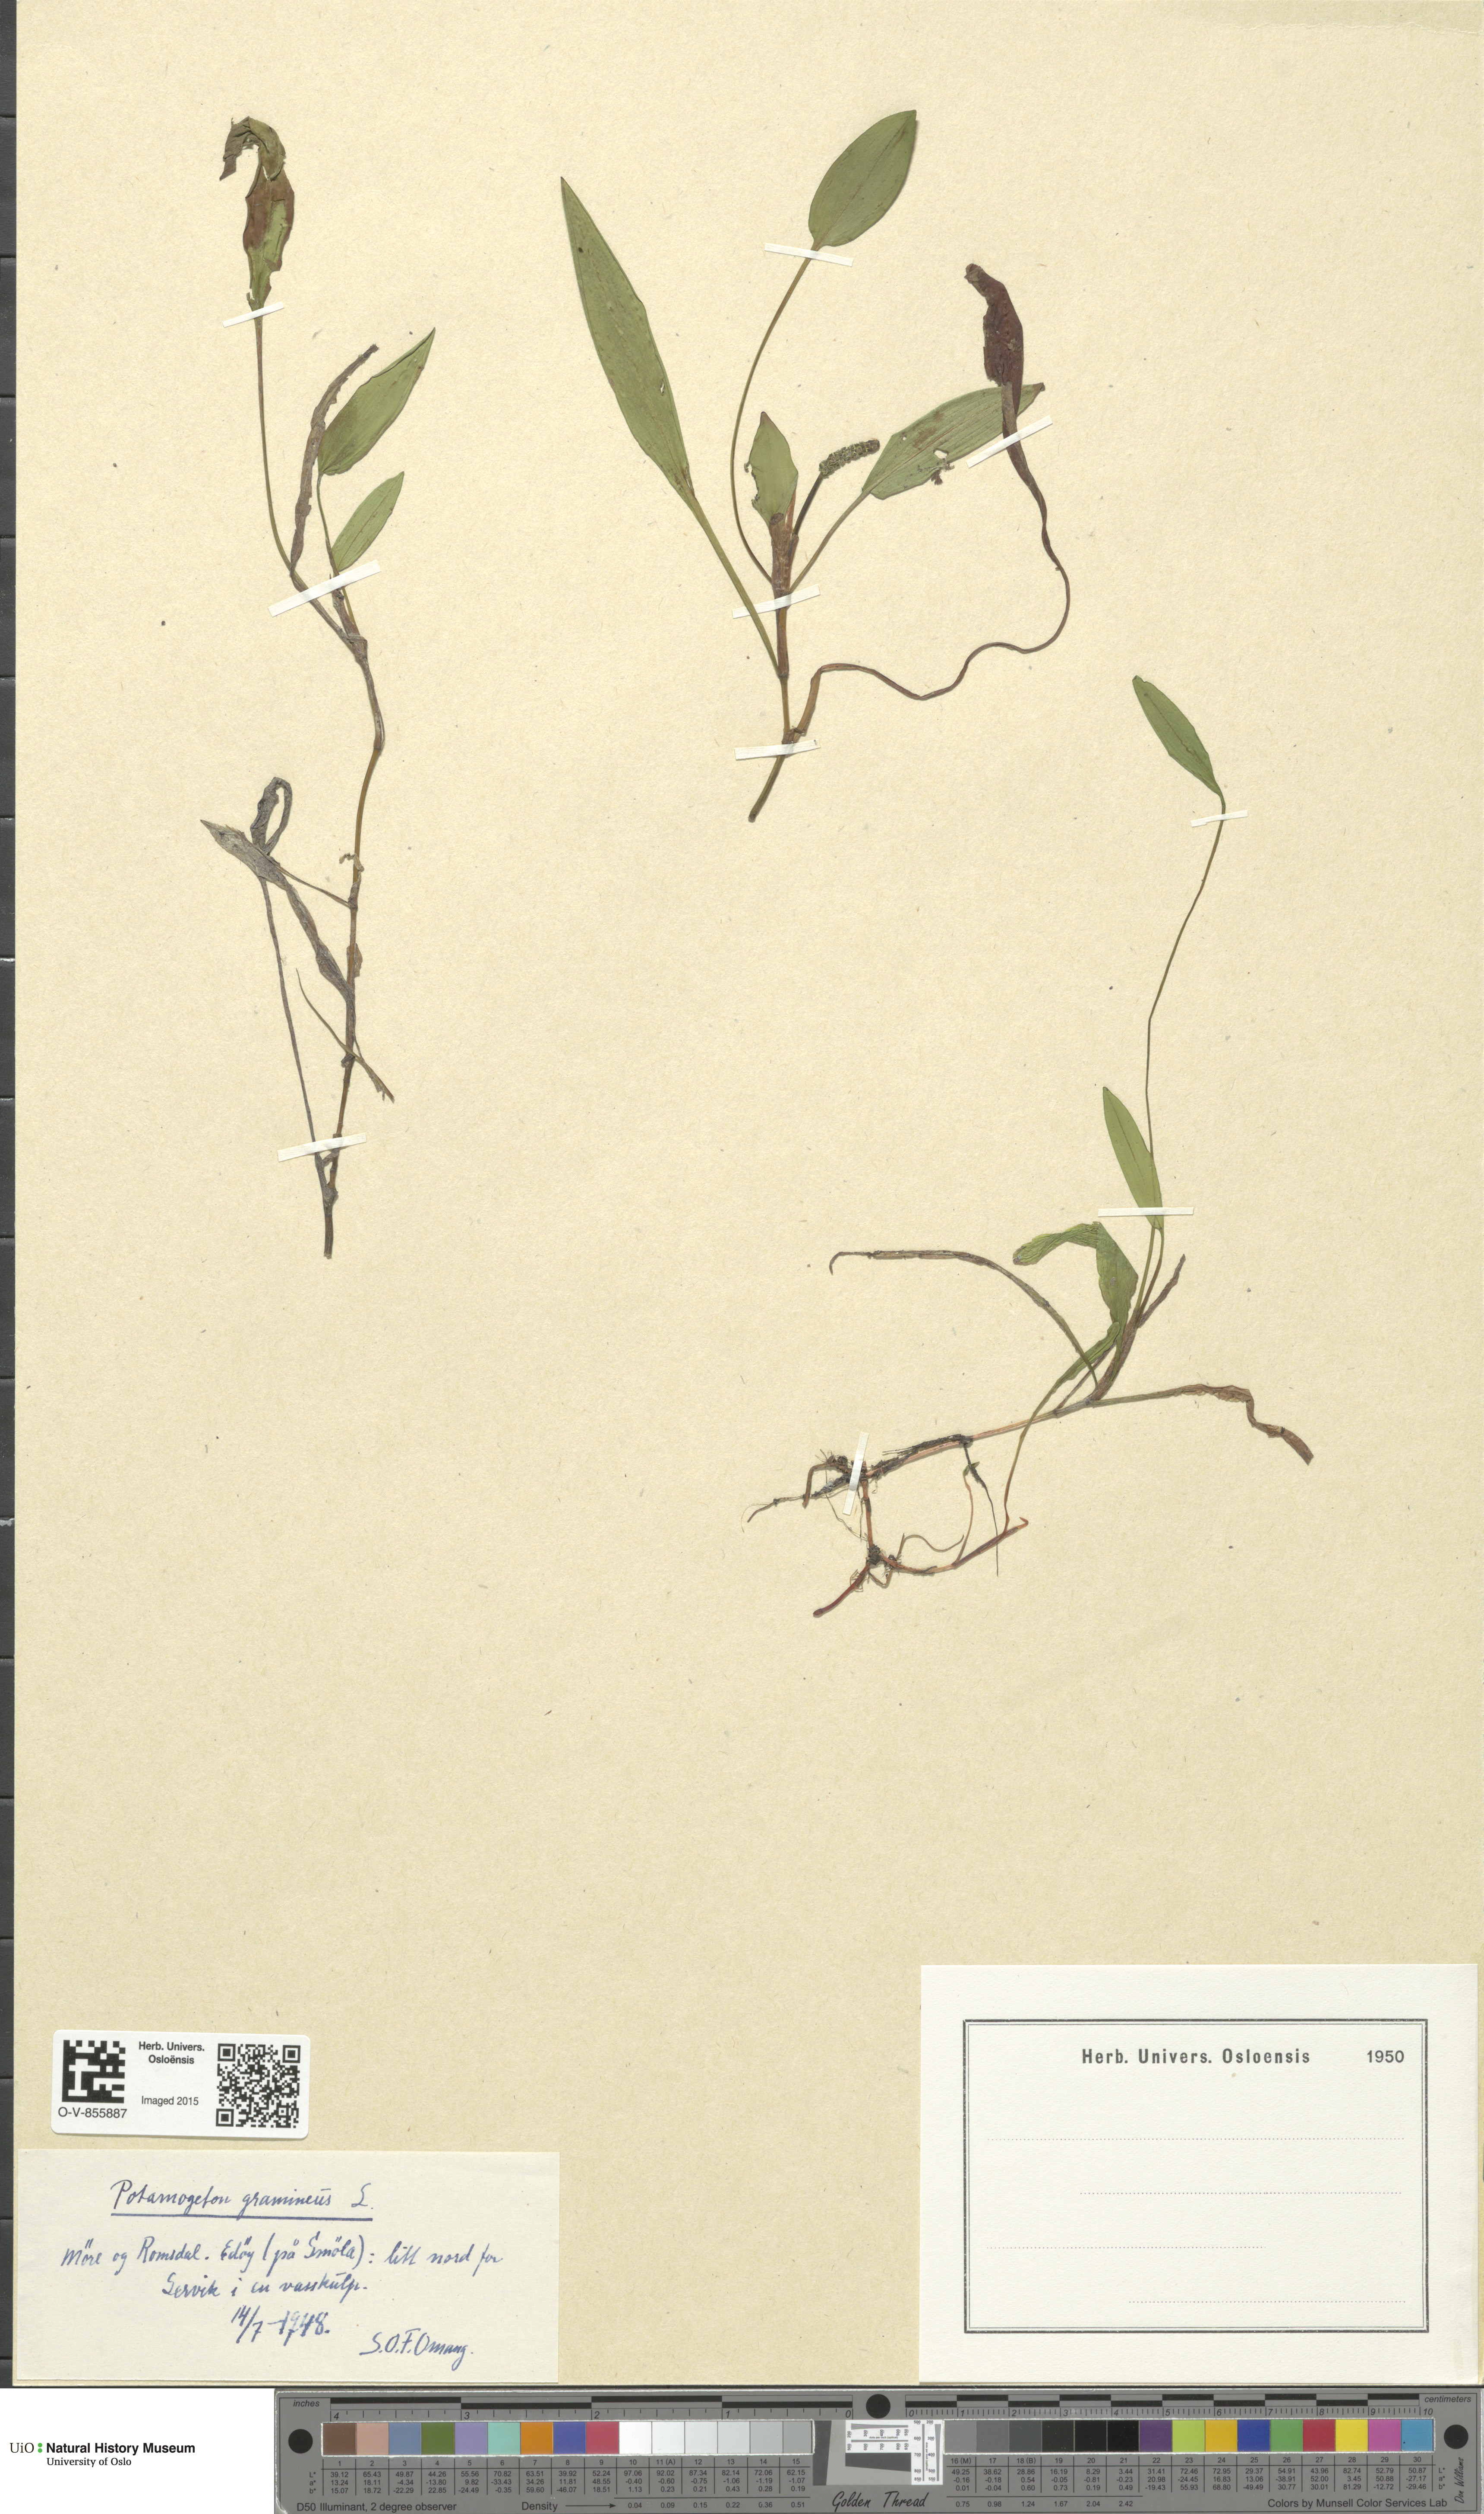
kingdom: Plantae
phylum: Tracheophyta
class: Liliopsida
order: Alismatales
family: Potamogetonaceae
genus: Potamogeton
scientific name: Potamogeton polygonifolius
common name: Bog pondweed
